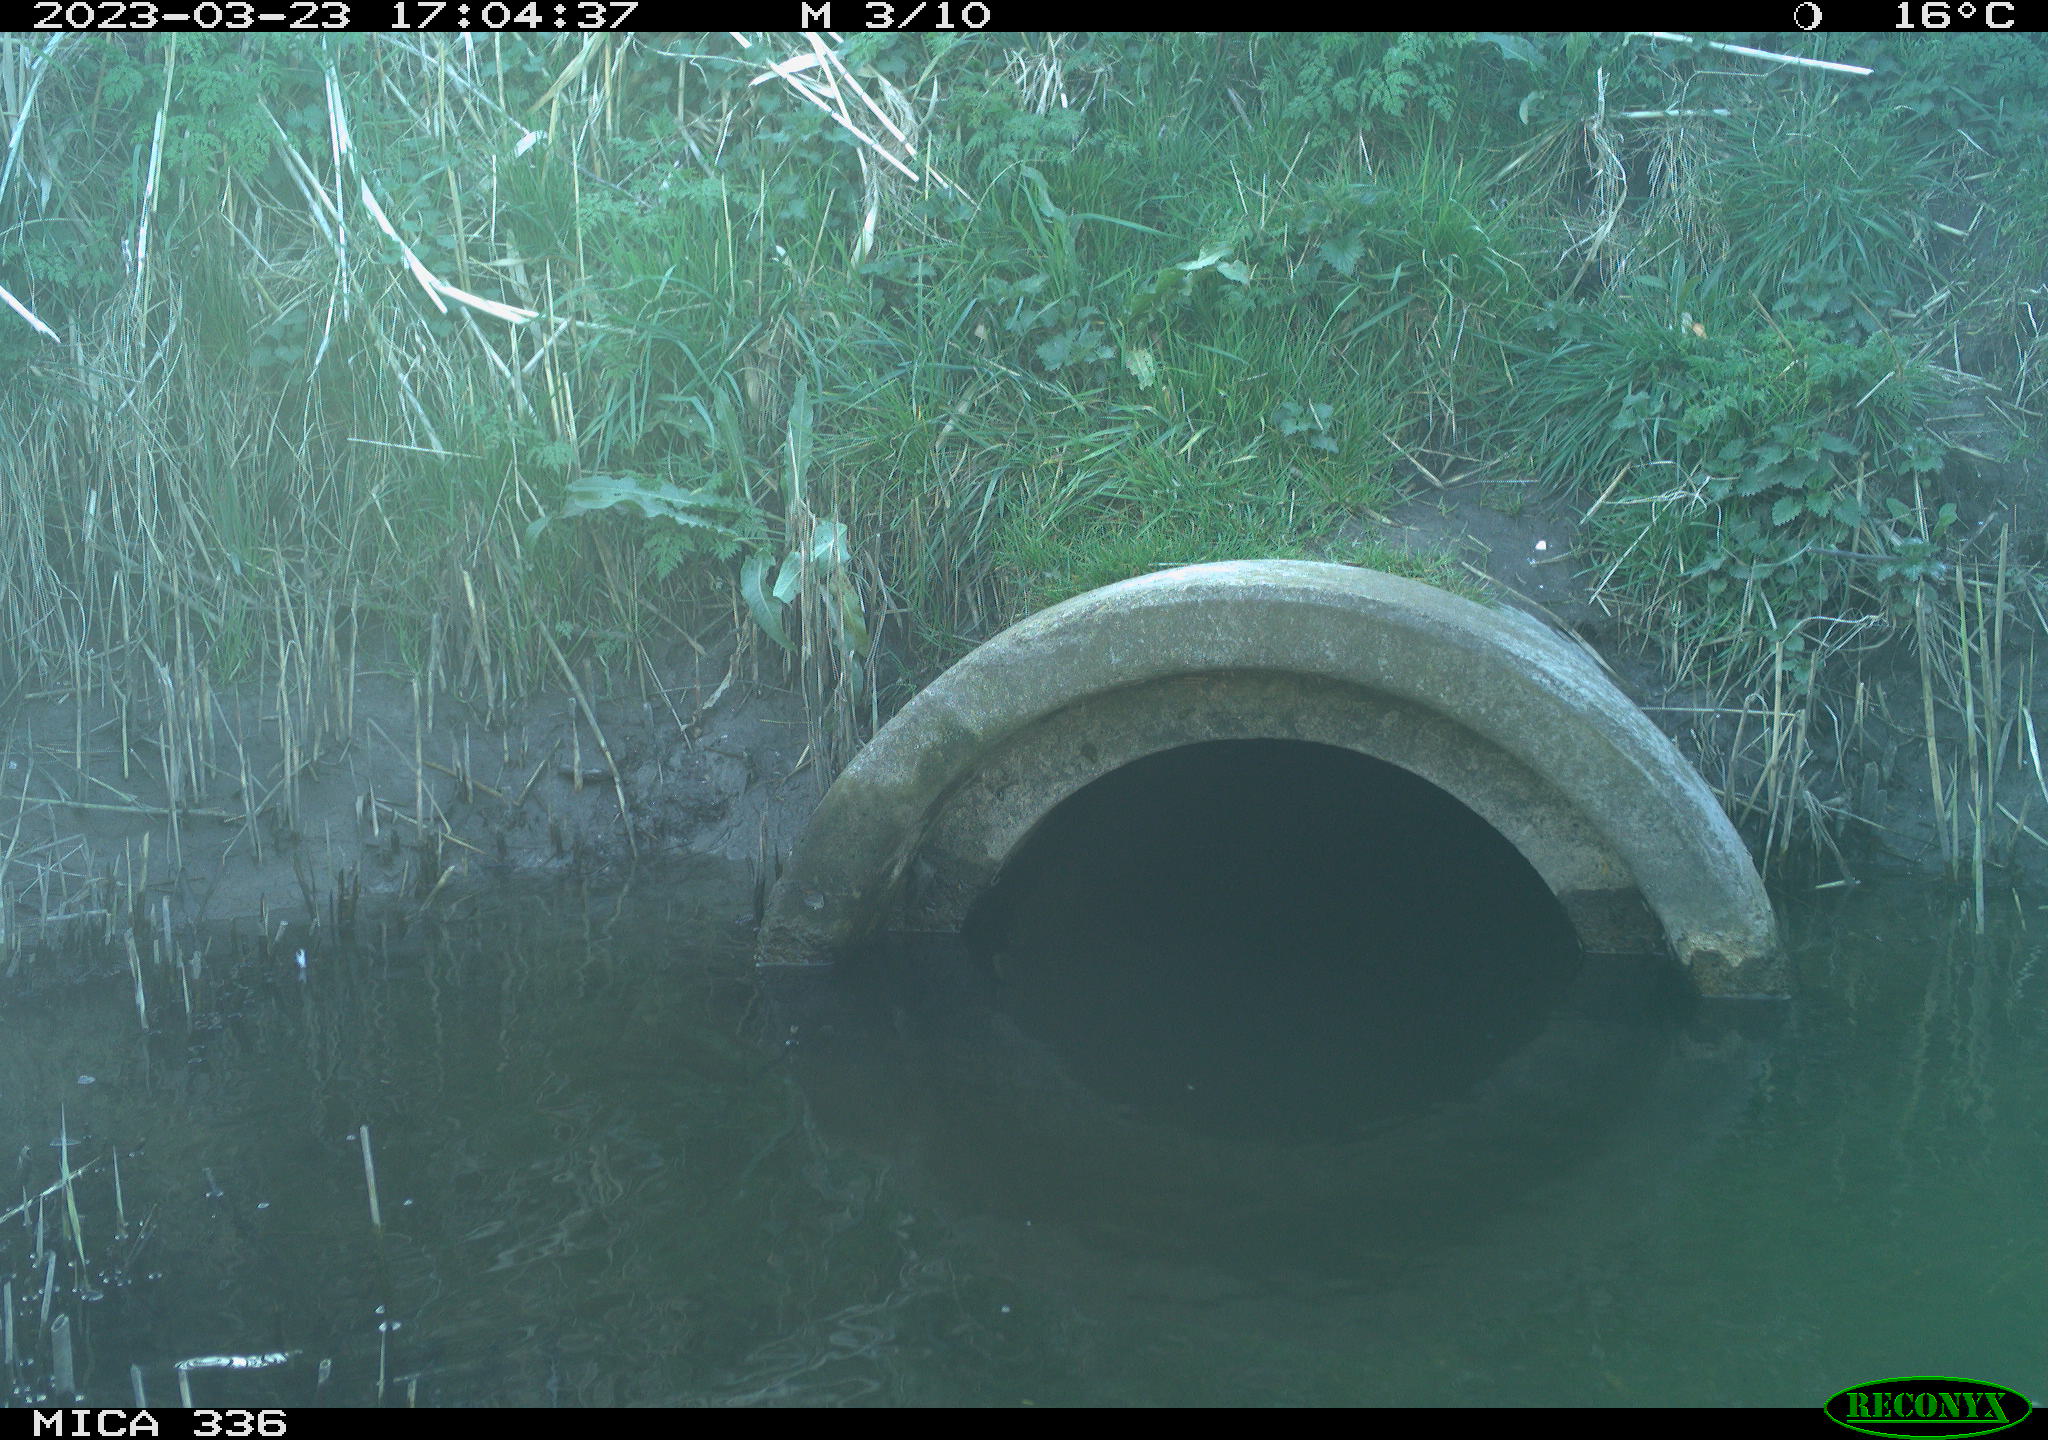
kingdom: Animalia
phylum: Chordata
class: Aves
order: Pelecaniformes
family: Ardeidae
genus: Ardea
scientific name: Ardea cinerea
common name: Grey heron
